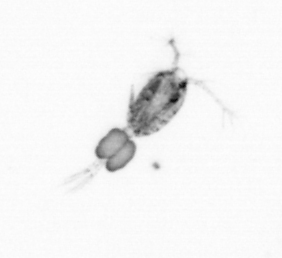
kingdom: Animalia
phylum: Arthropoda
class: Copepoda
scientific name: Copepoda
